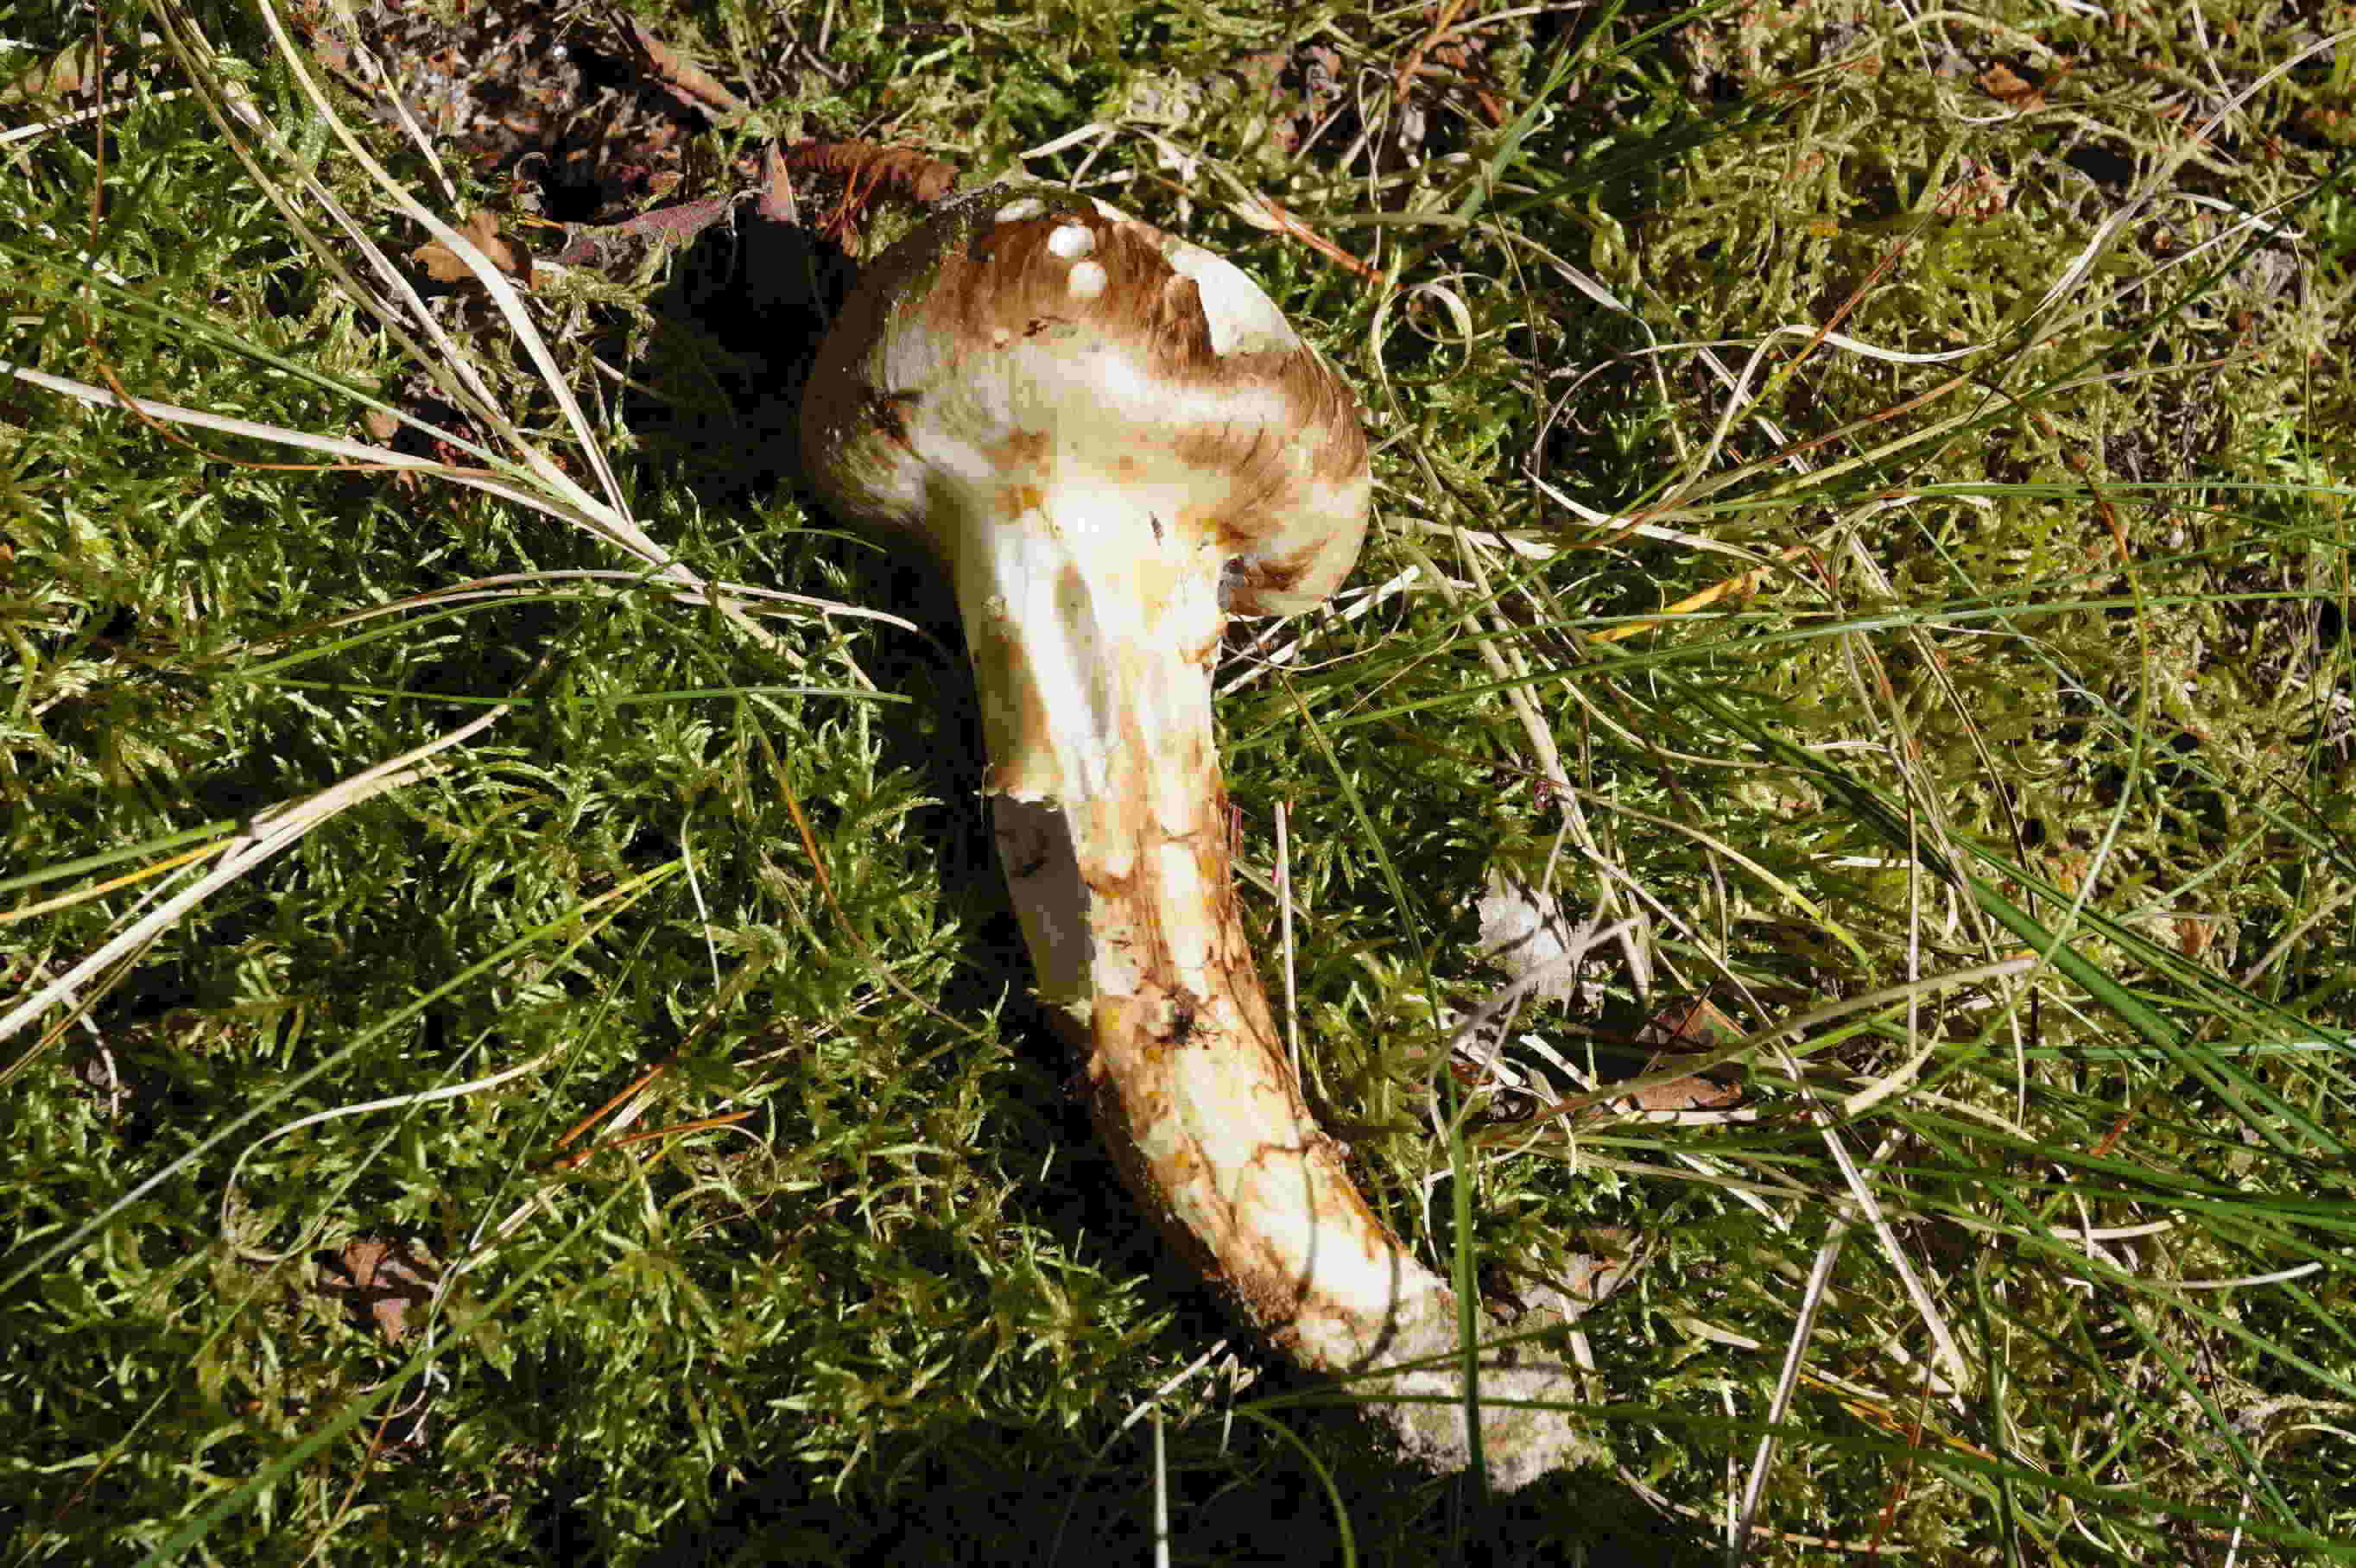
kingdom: Fungi
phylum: Basidiomycota
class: Agaricomycetes
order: Agaricales
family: Tricholomataceae
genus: Tricholoma
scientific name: Tricholoma matsutake
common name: duft-ridderhat
